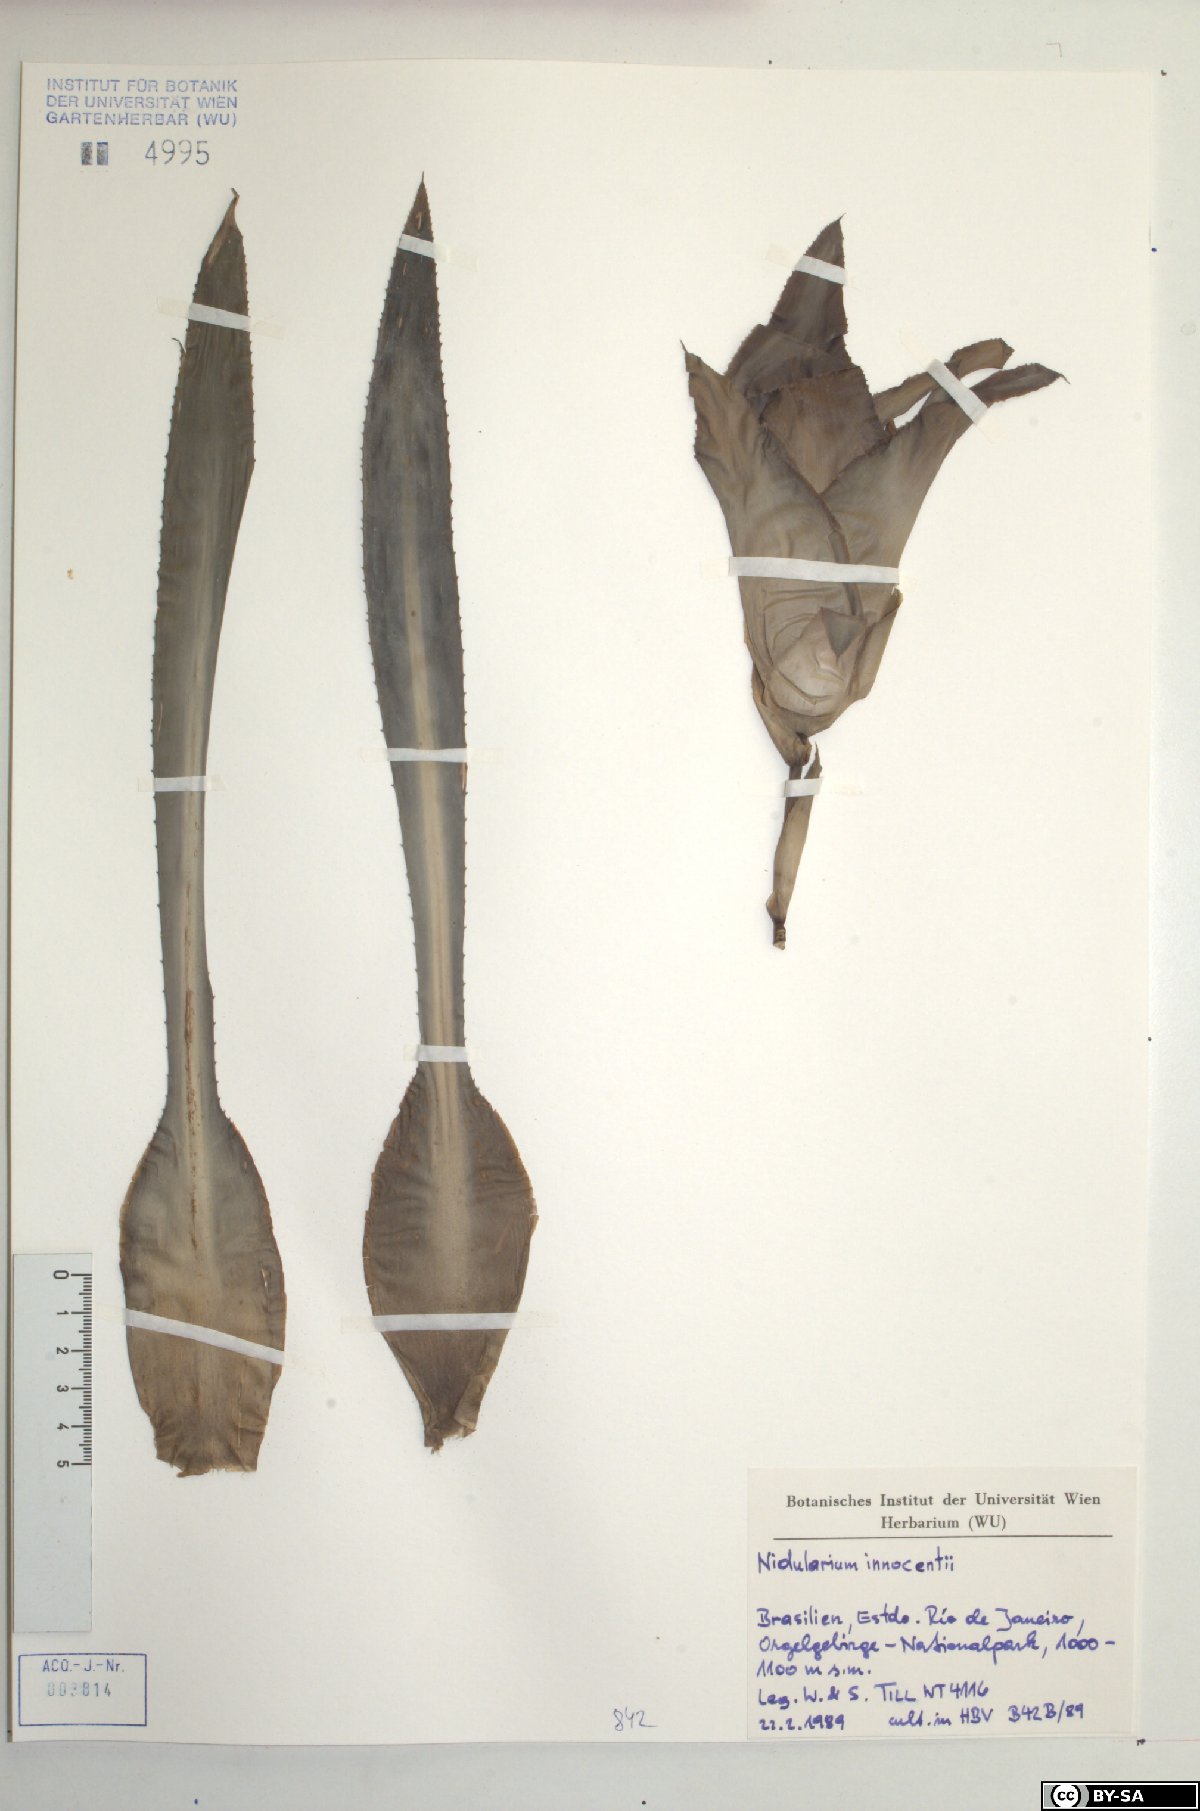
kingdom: Plantae
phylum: Tracheophyta
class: Liliopsida
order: Poales
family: Bromeliaceae
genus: Nidularium
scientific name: Nidularium innocentii
